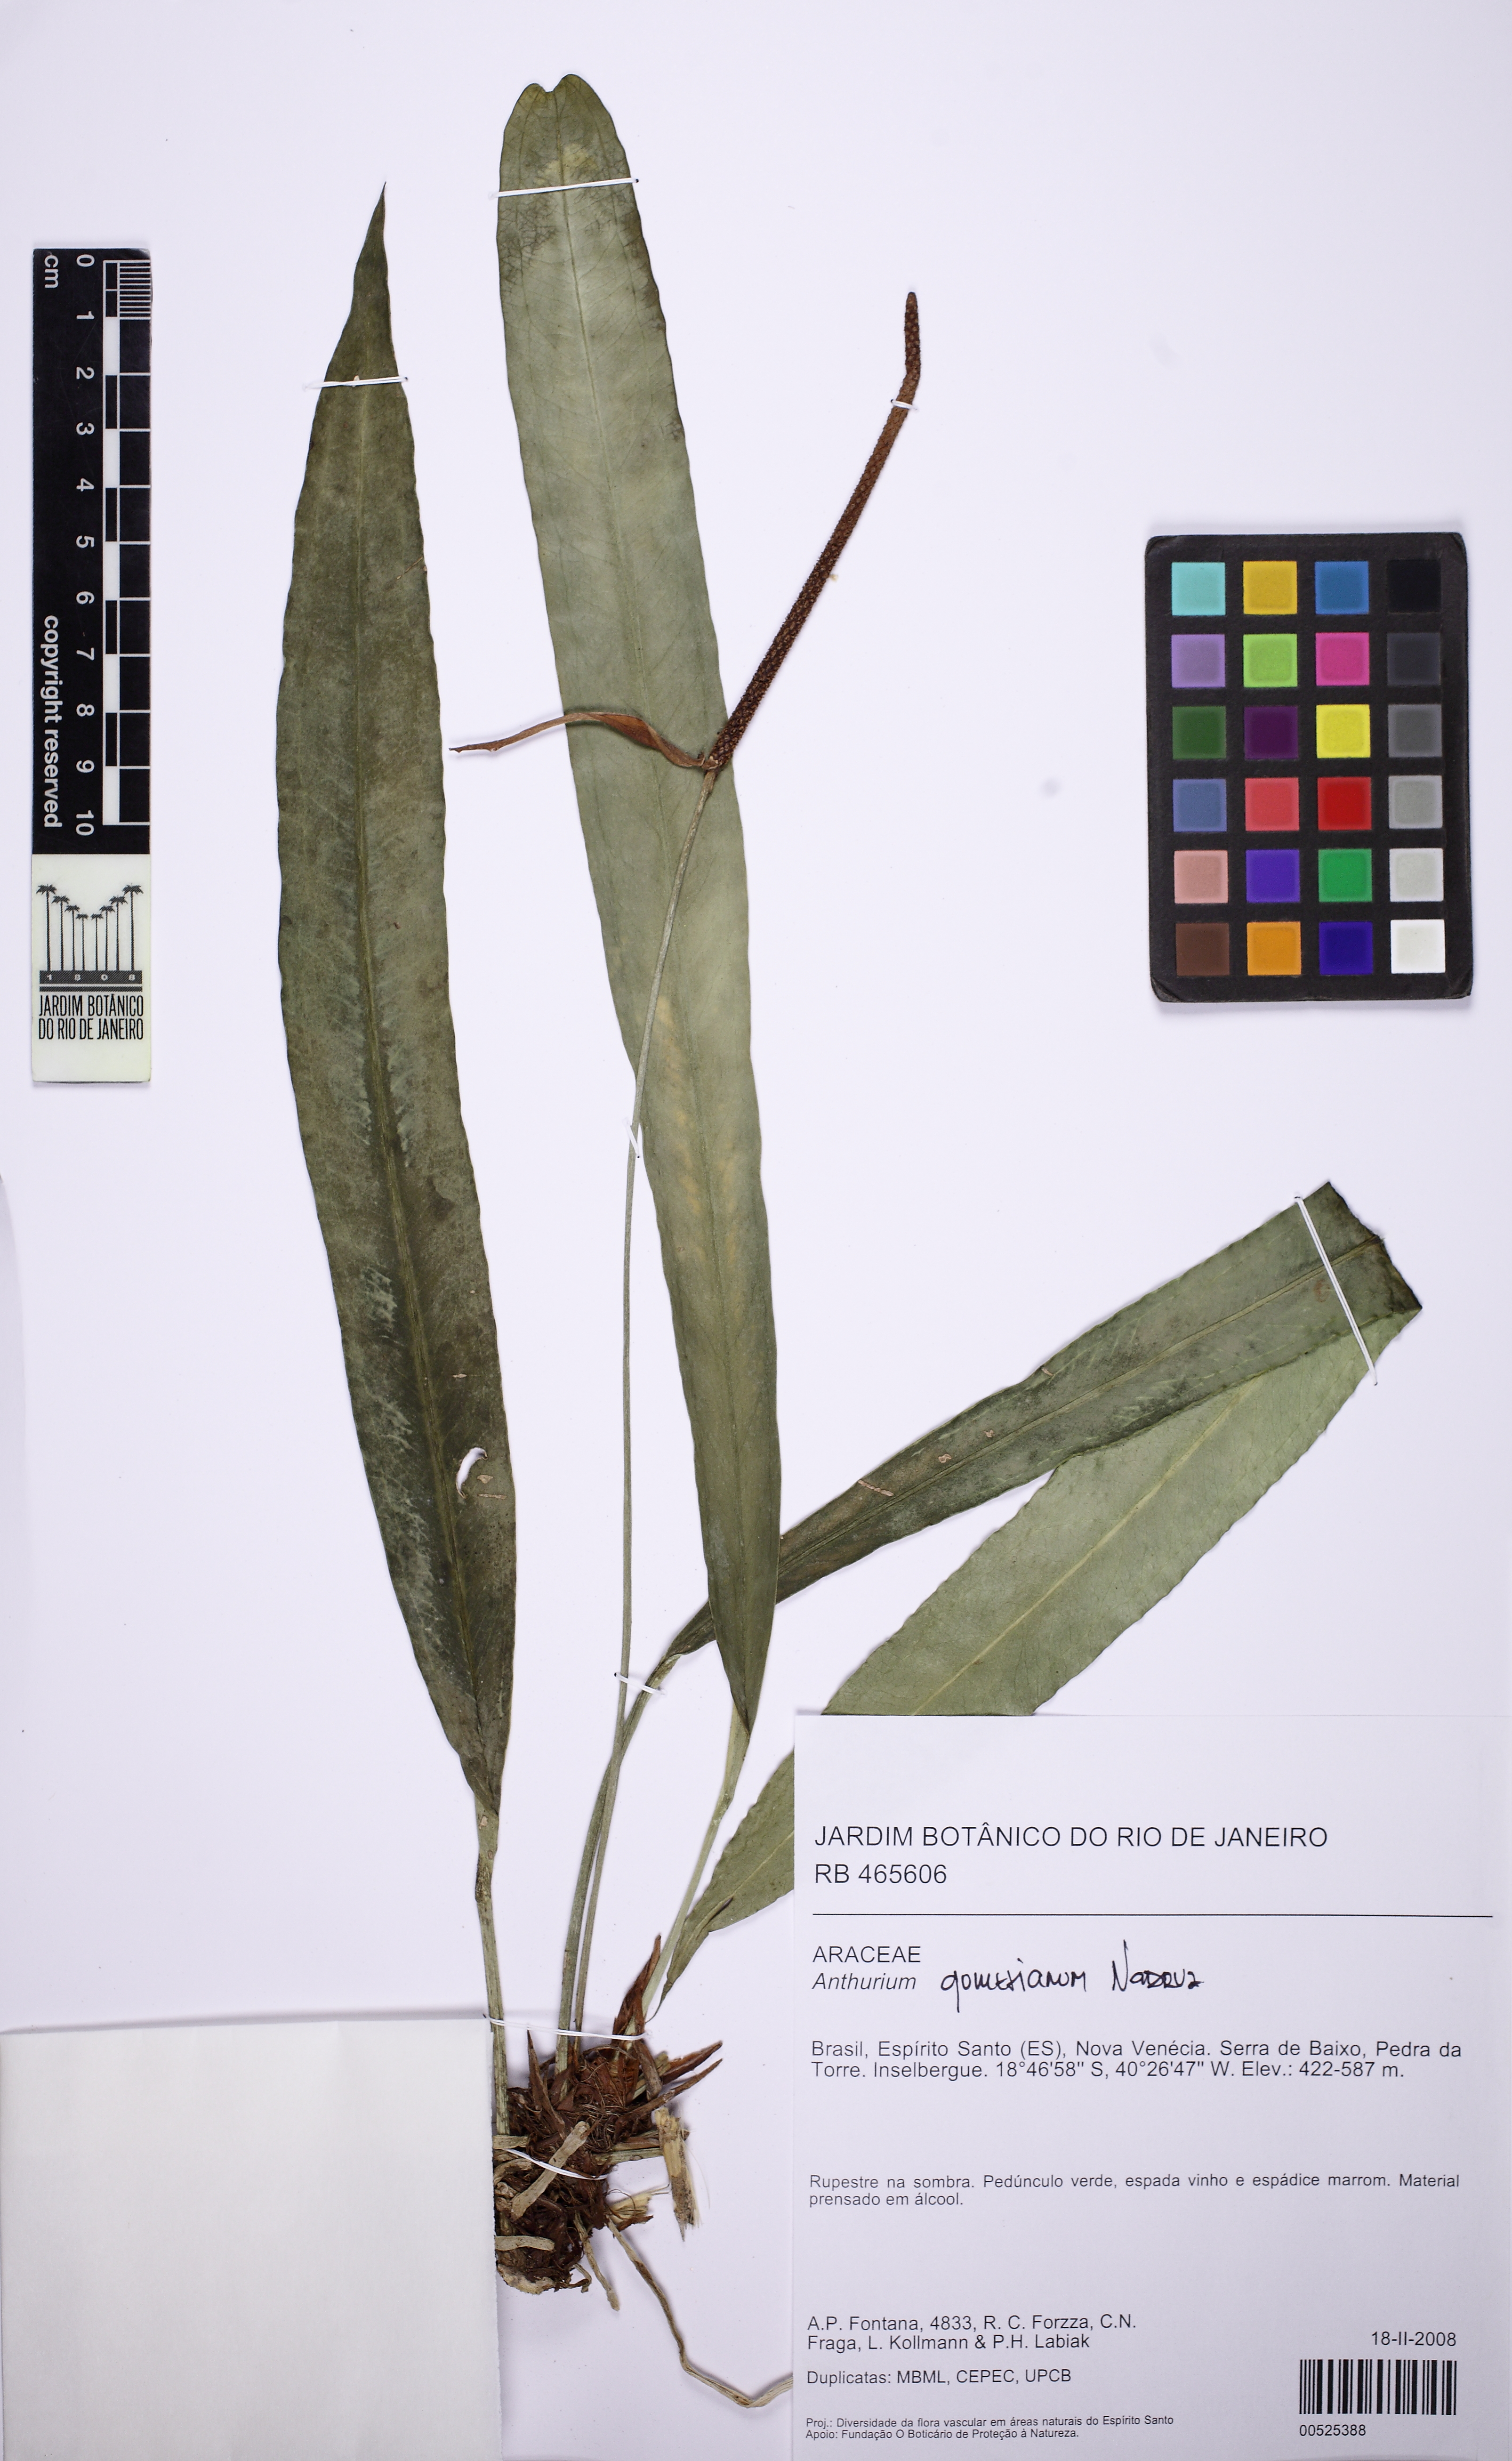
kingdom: Plantae
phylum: Tracheophyta
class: Liliopsida
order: Alismatales
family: Araceae
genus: Anthurium
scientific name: Anthurium gomesianum
